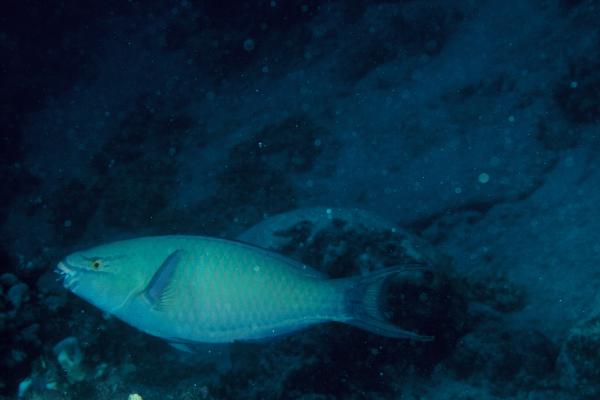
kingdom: Animalia
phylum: Chordata
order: Perciformes
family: Scaridae
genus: Scarus
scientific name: Scarus tricolor
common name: Tricolour parrotfish
